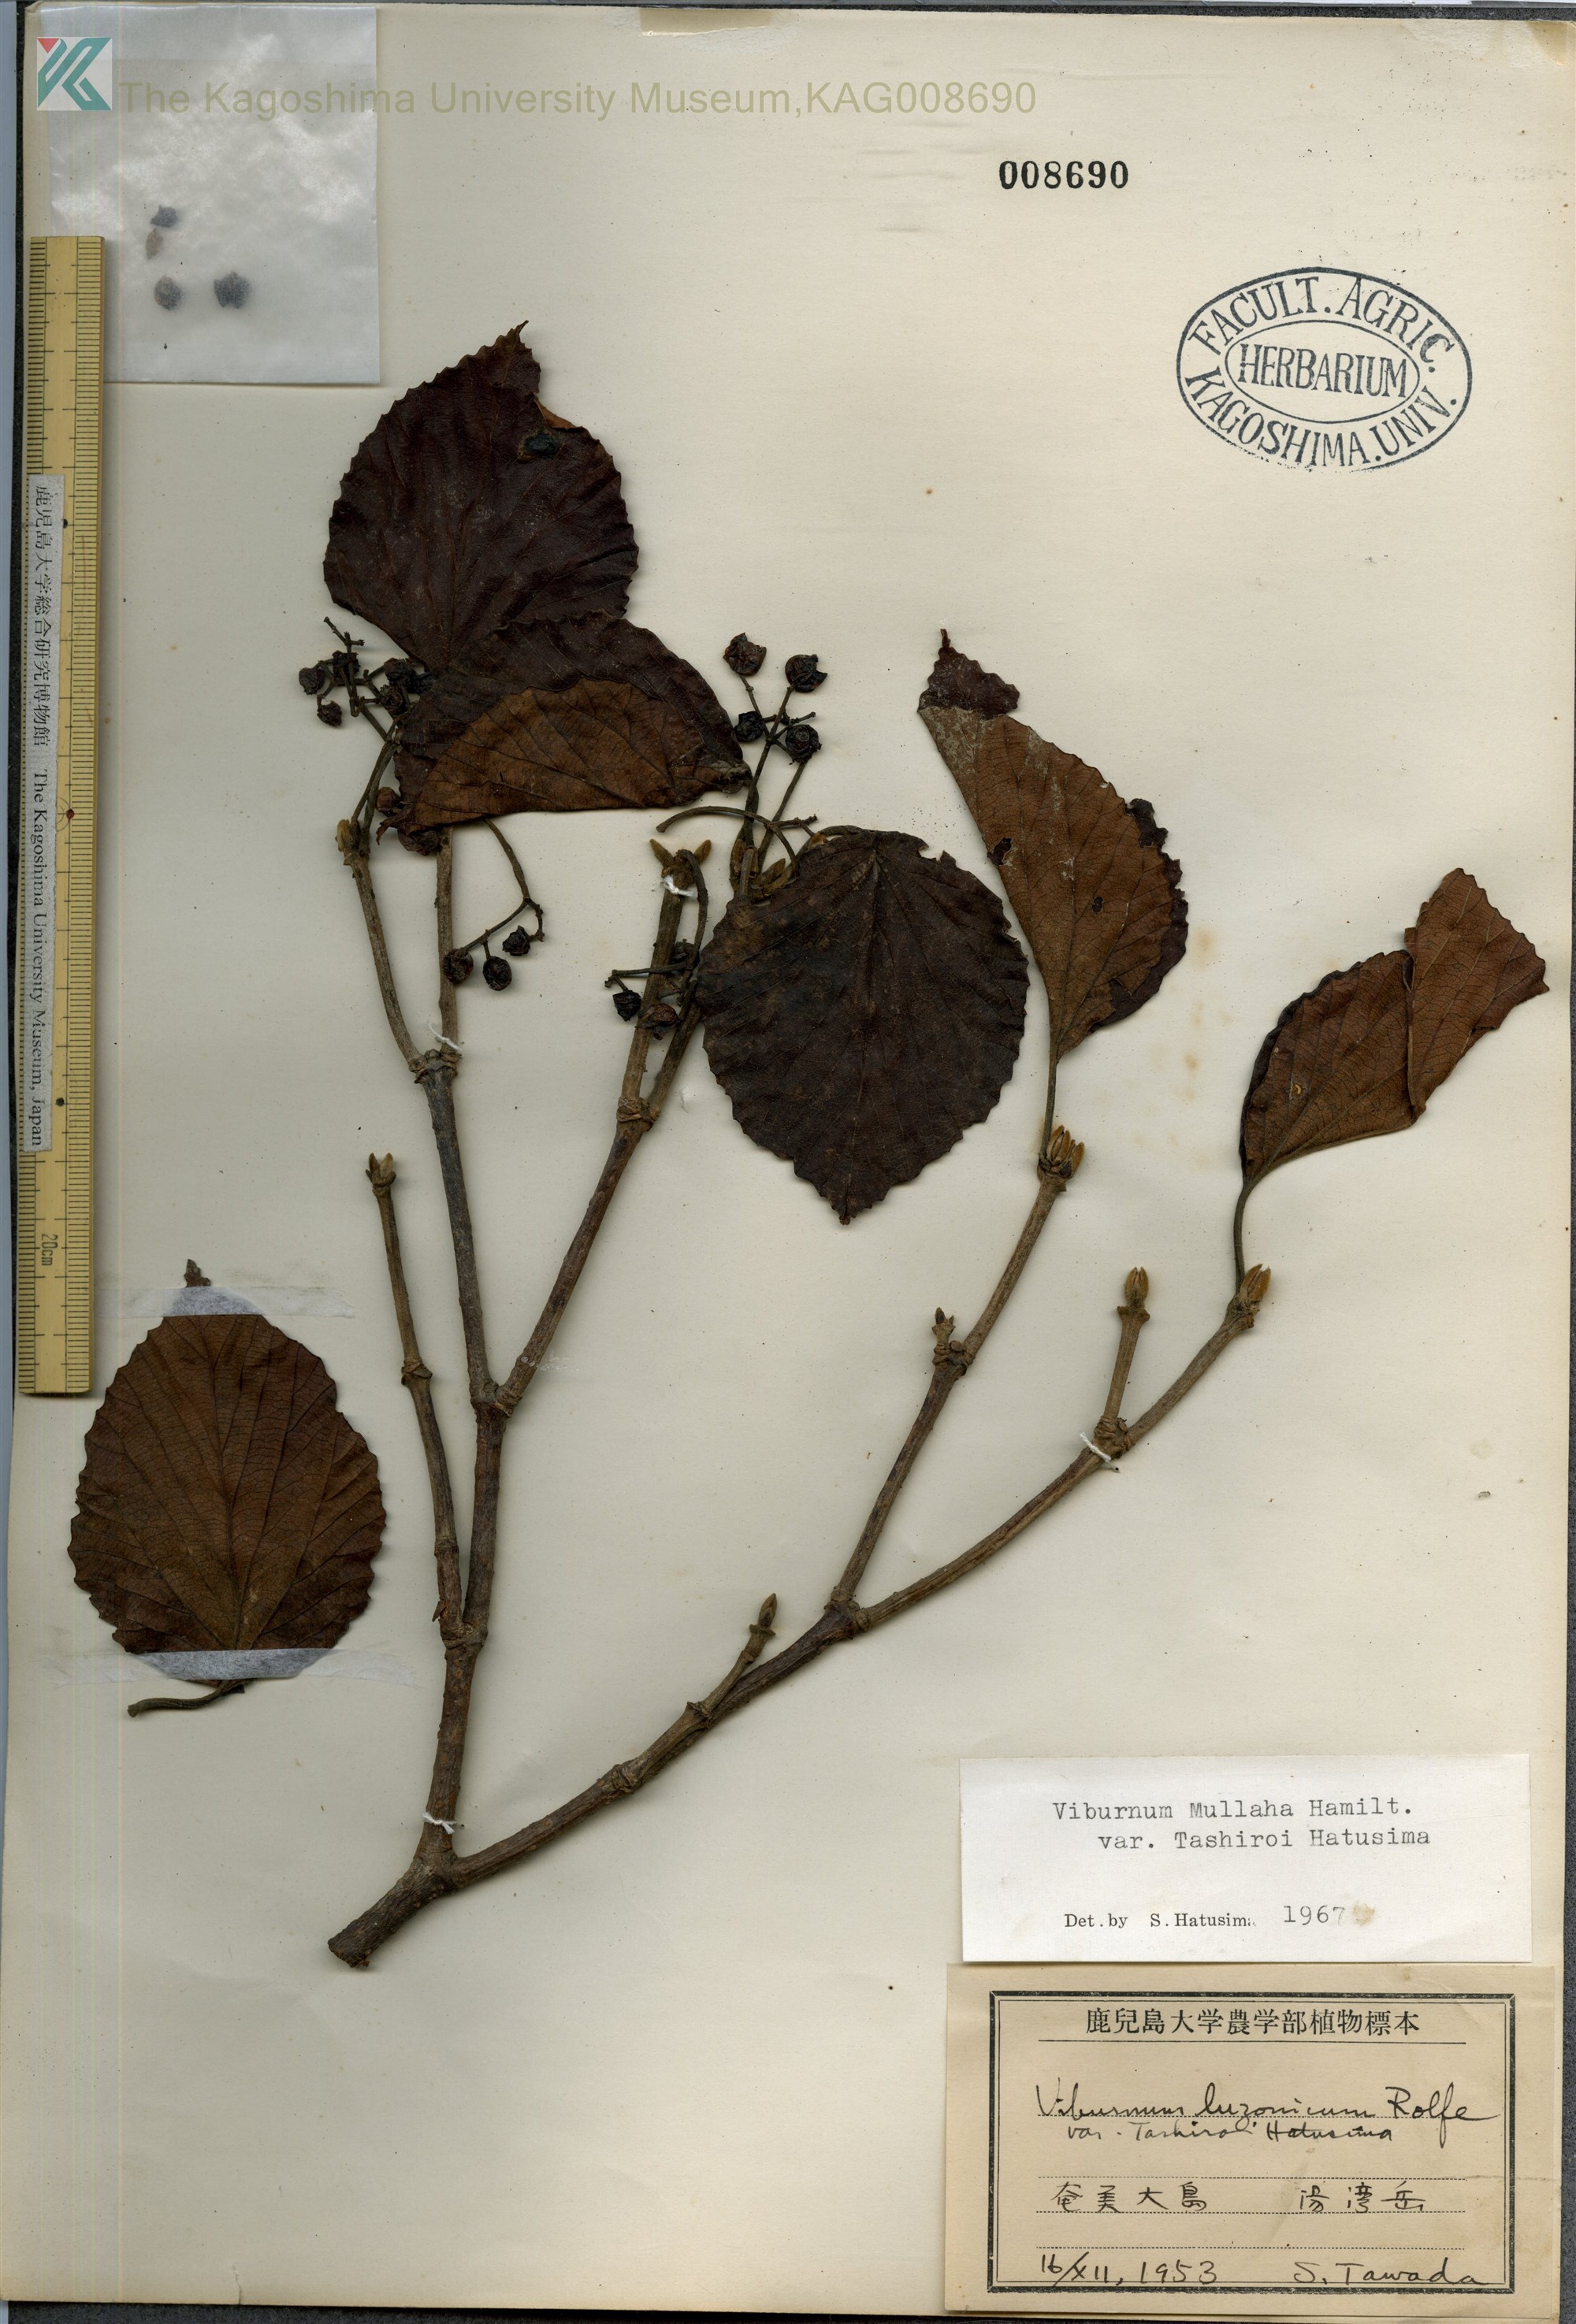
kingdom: Plantae
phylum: Tracheophyta
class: Magnoliopsida
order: Dipsacales
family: Viburnaceae
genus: Viburnum
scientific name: Viburnum luzonicum
